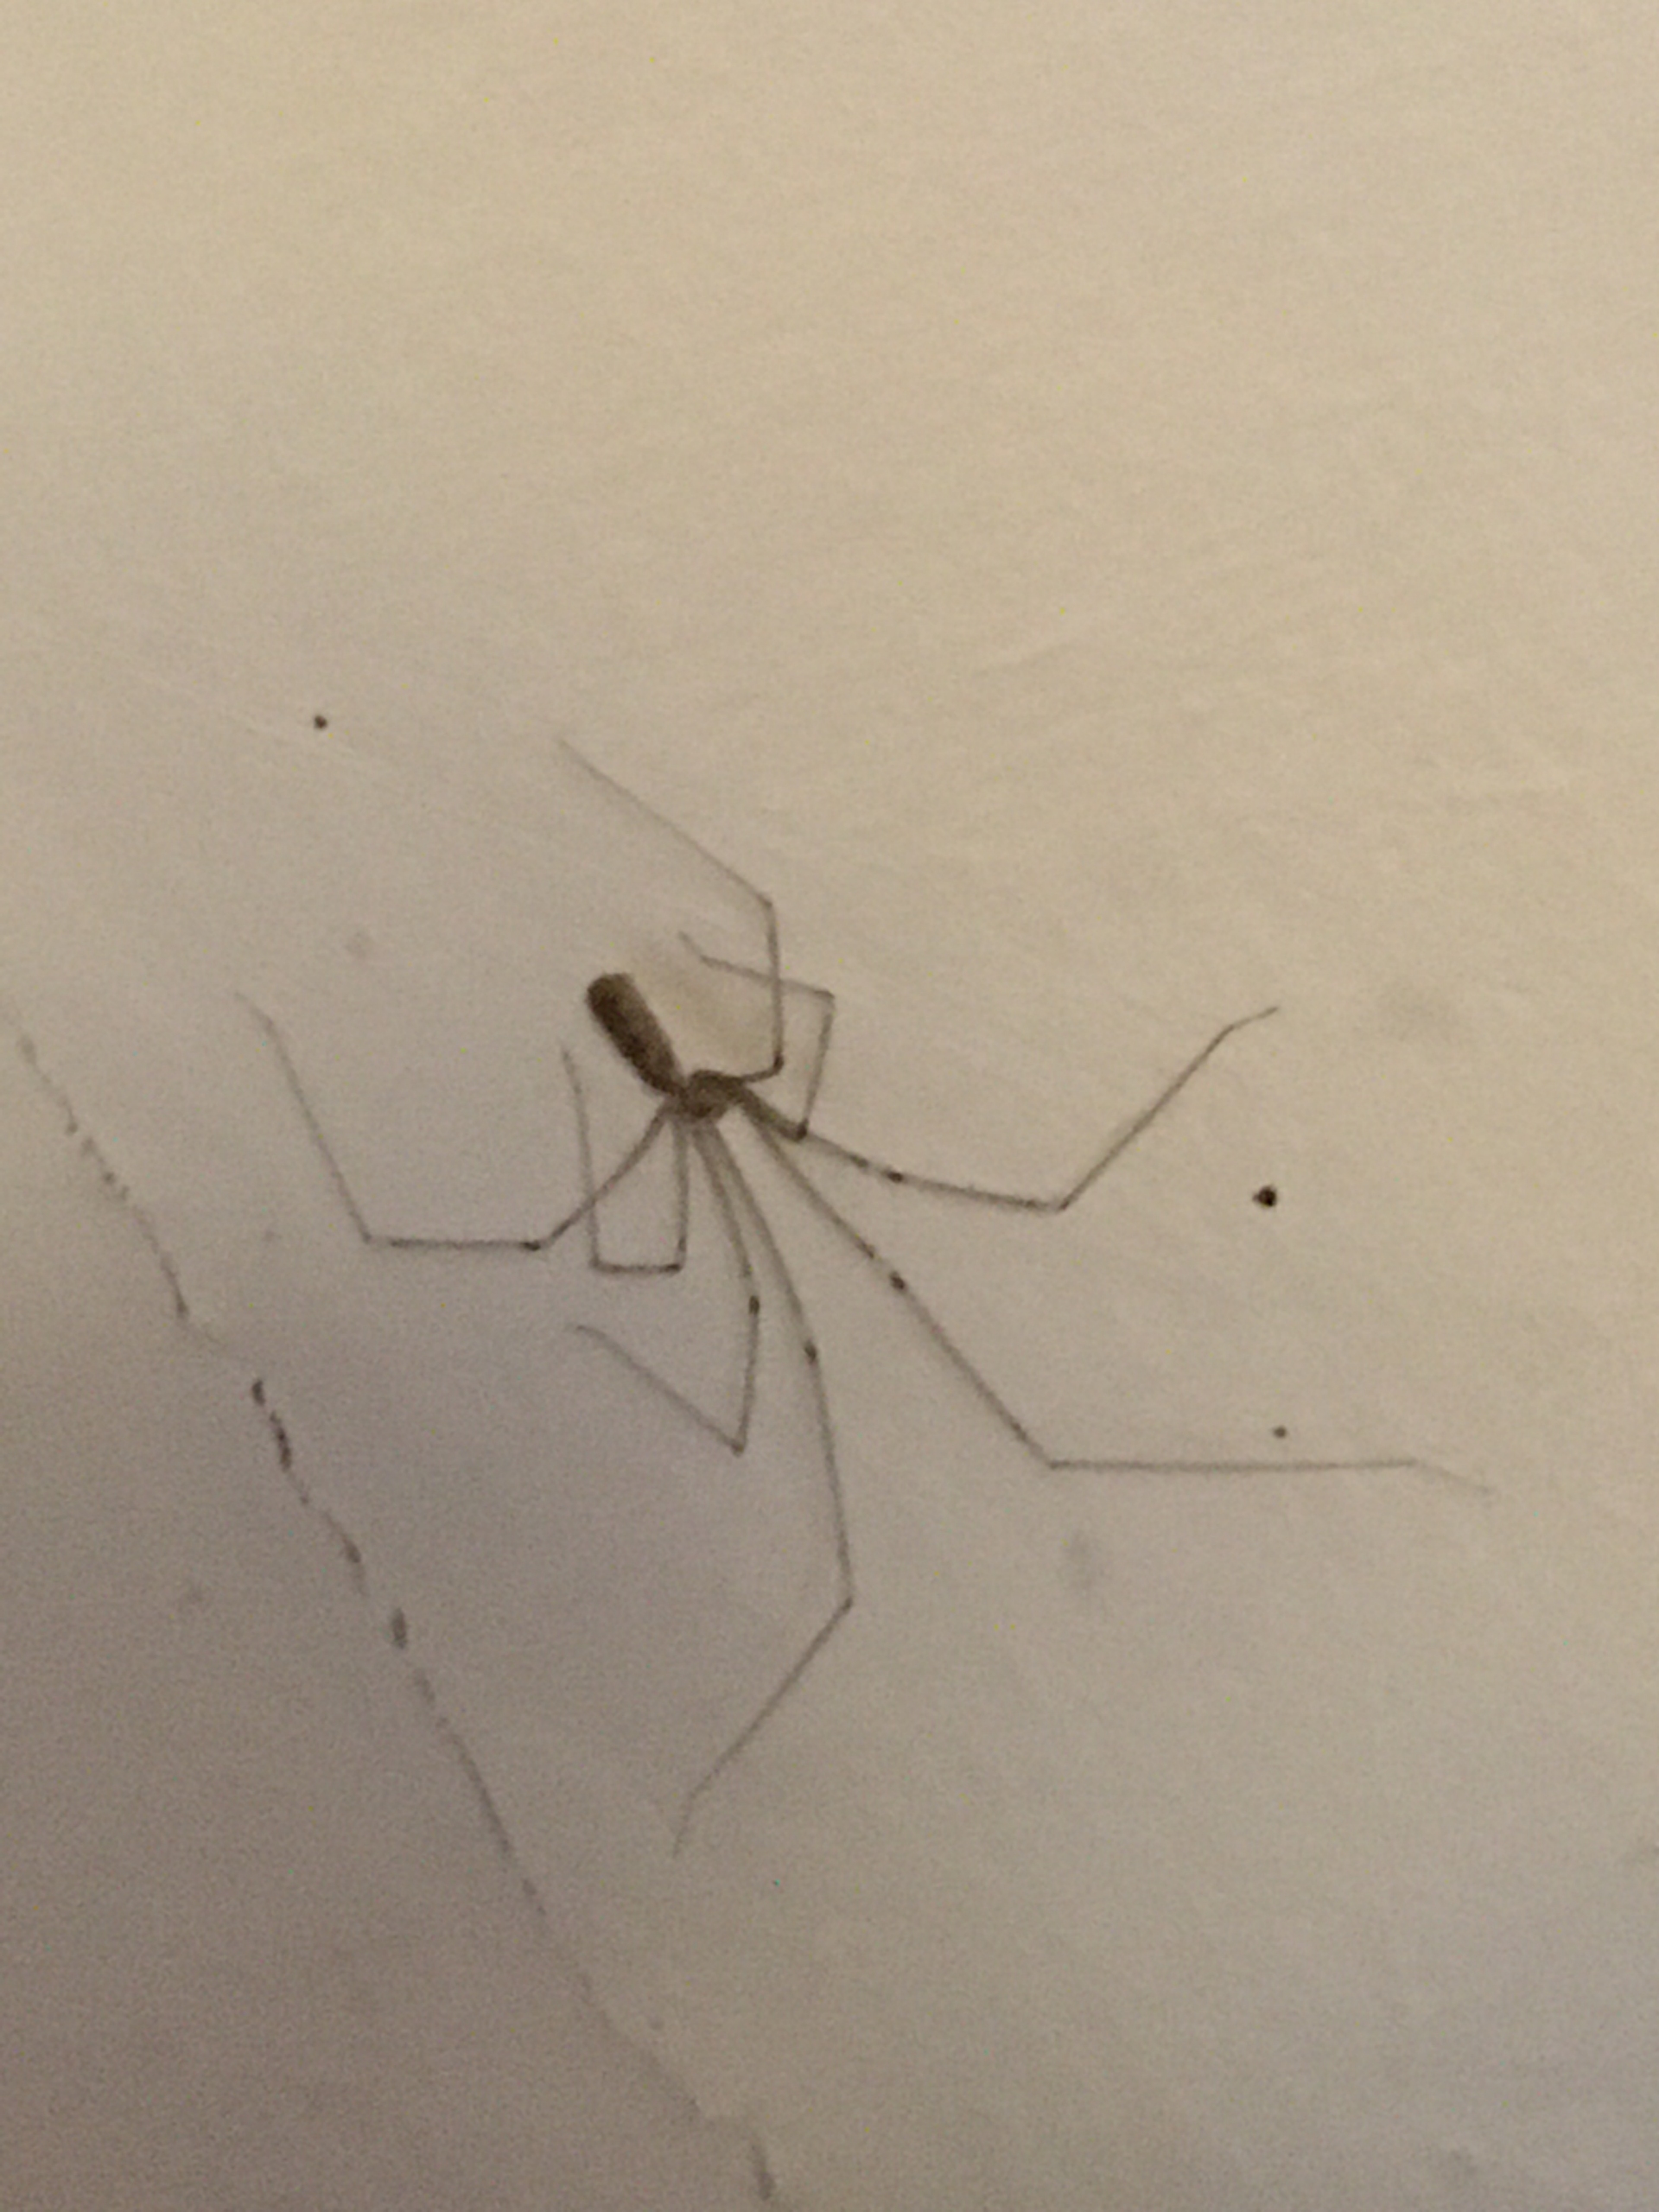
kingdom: Animalia
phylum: Arthropoda
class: Arachnida
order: Araneae
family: Pholcidae
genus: Pholcus
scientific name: Pholcus phalangioides
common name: Mejeredderkop
